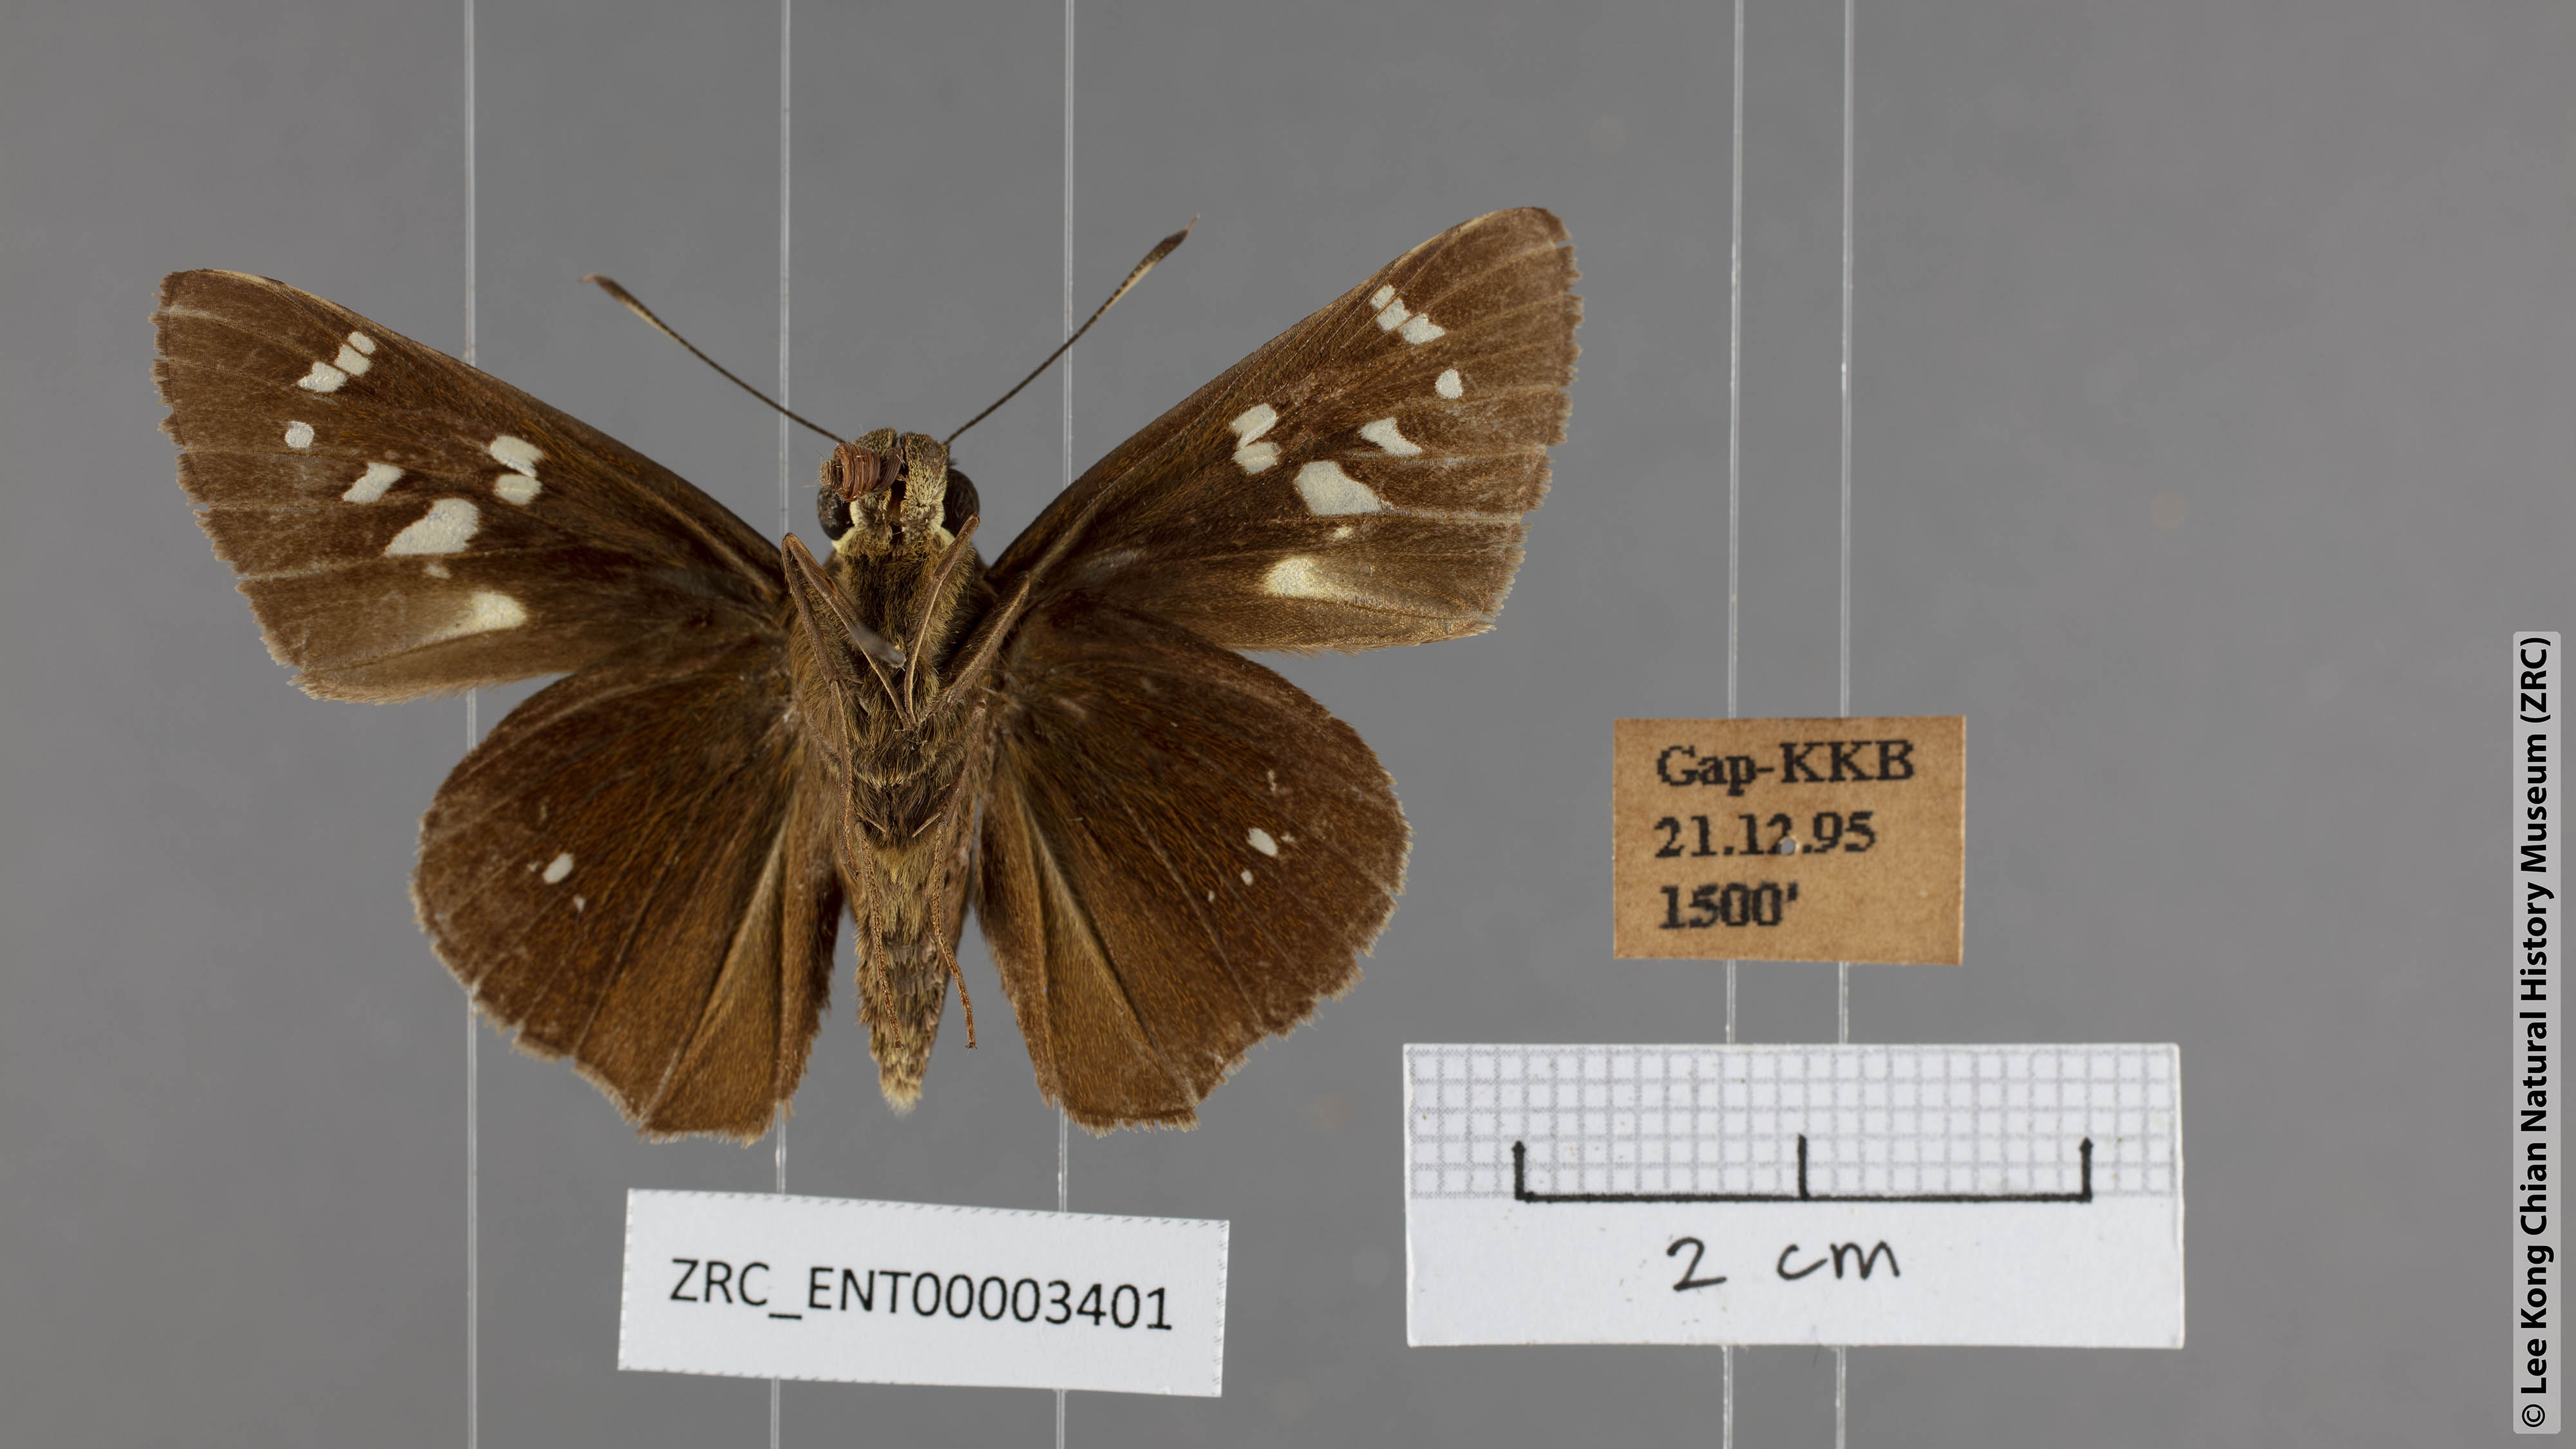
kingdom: Animalia
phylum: Arthropoda
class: Insecta
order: Lepidoptera
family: Hesperiidae
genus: Pelopidas
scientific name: Pelopidas assamensis
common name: Great swift
